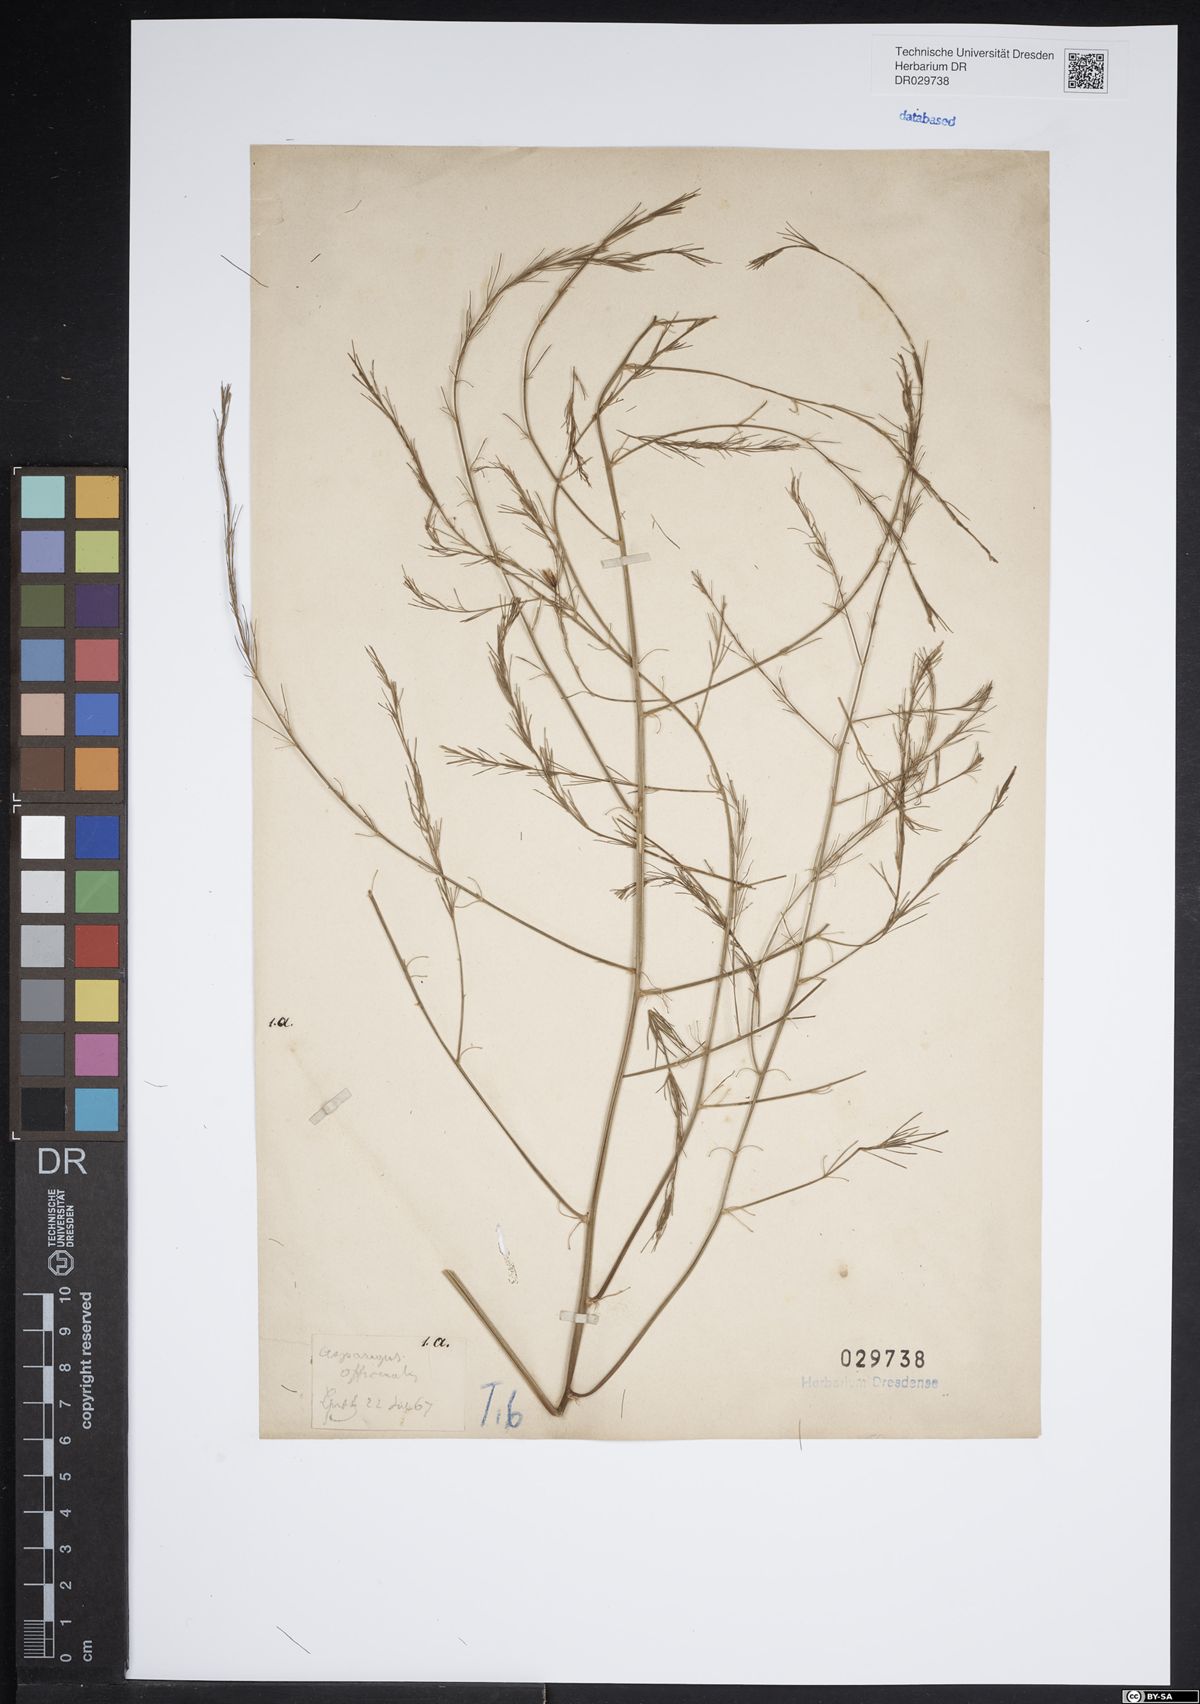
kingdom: Plantae
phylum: Tracheophyta
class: Liliopsida
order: Asparagales
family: Asparagaceae
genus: Asparagus
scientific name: Asparagus officinalis
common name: Garden asparagus
